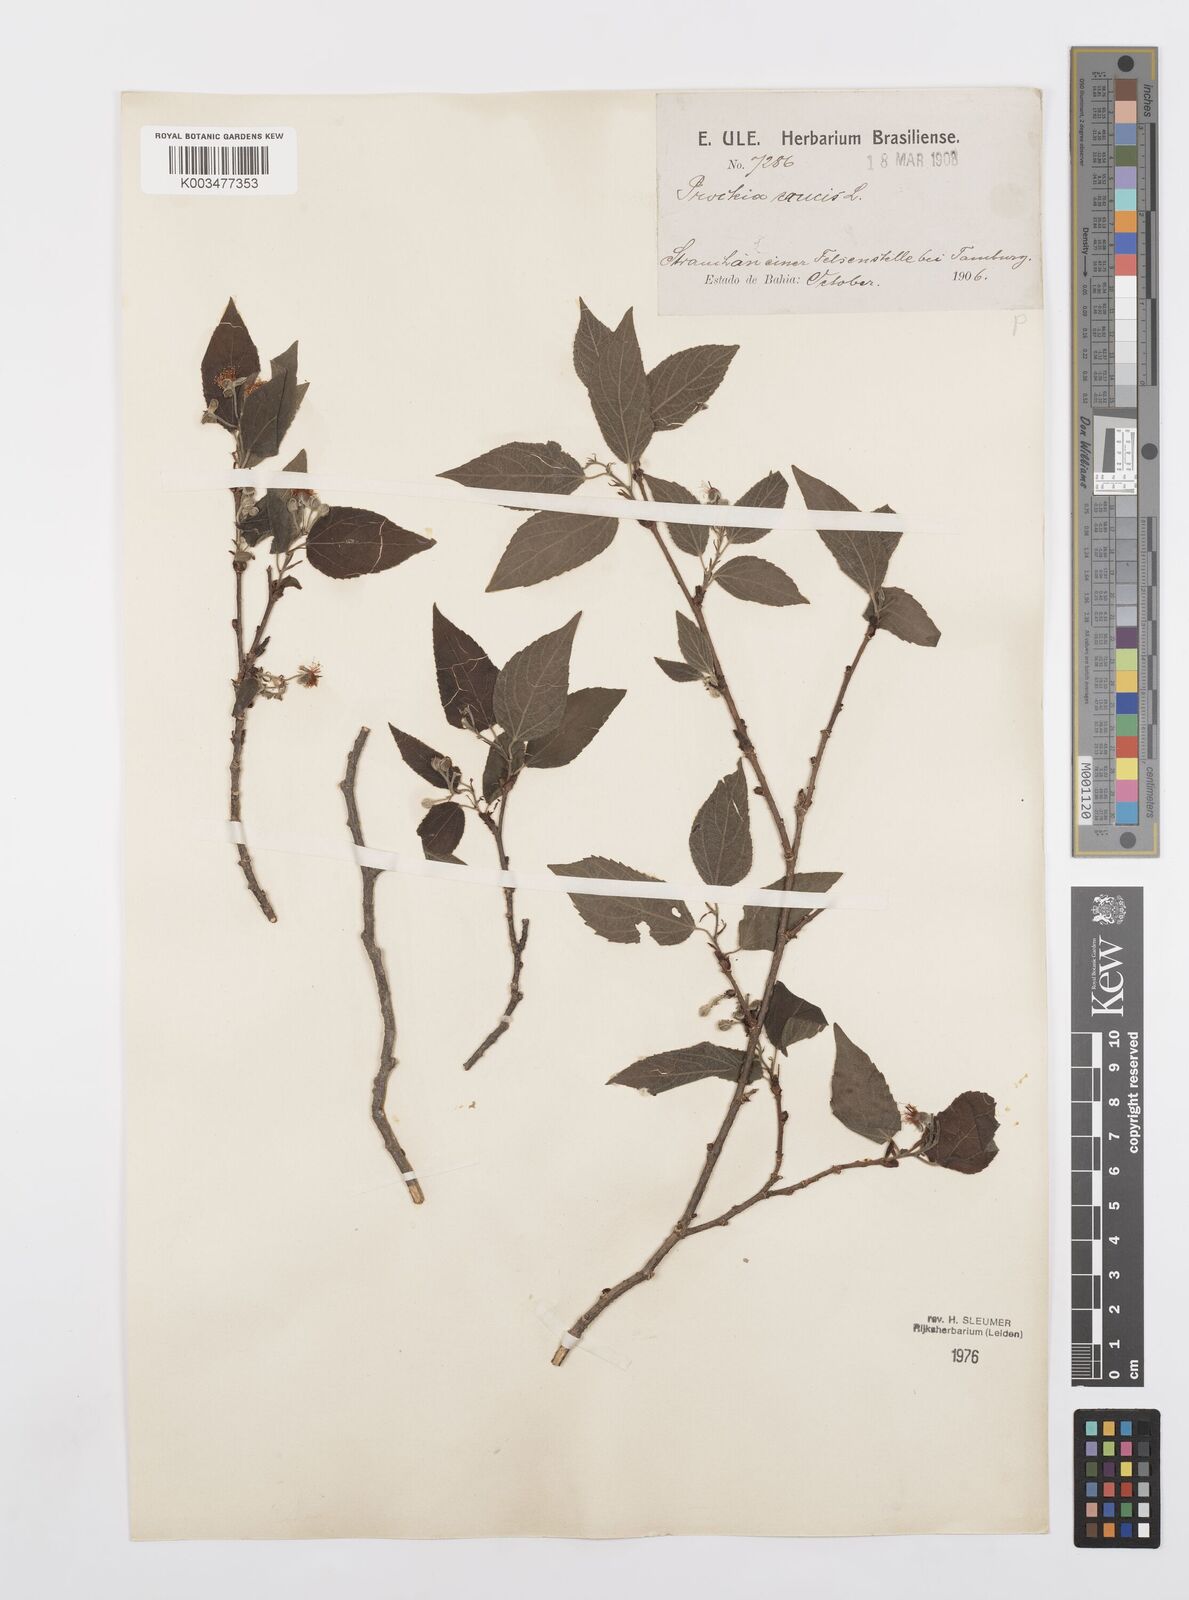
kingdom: Plantae
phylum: Tracheophyta
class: Magnoliopsida
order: Malpighiales
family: Salicaceae
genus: Prockia
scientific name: Prockia crucis
